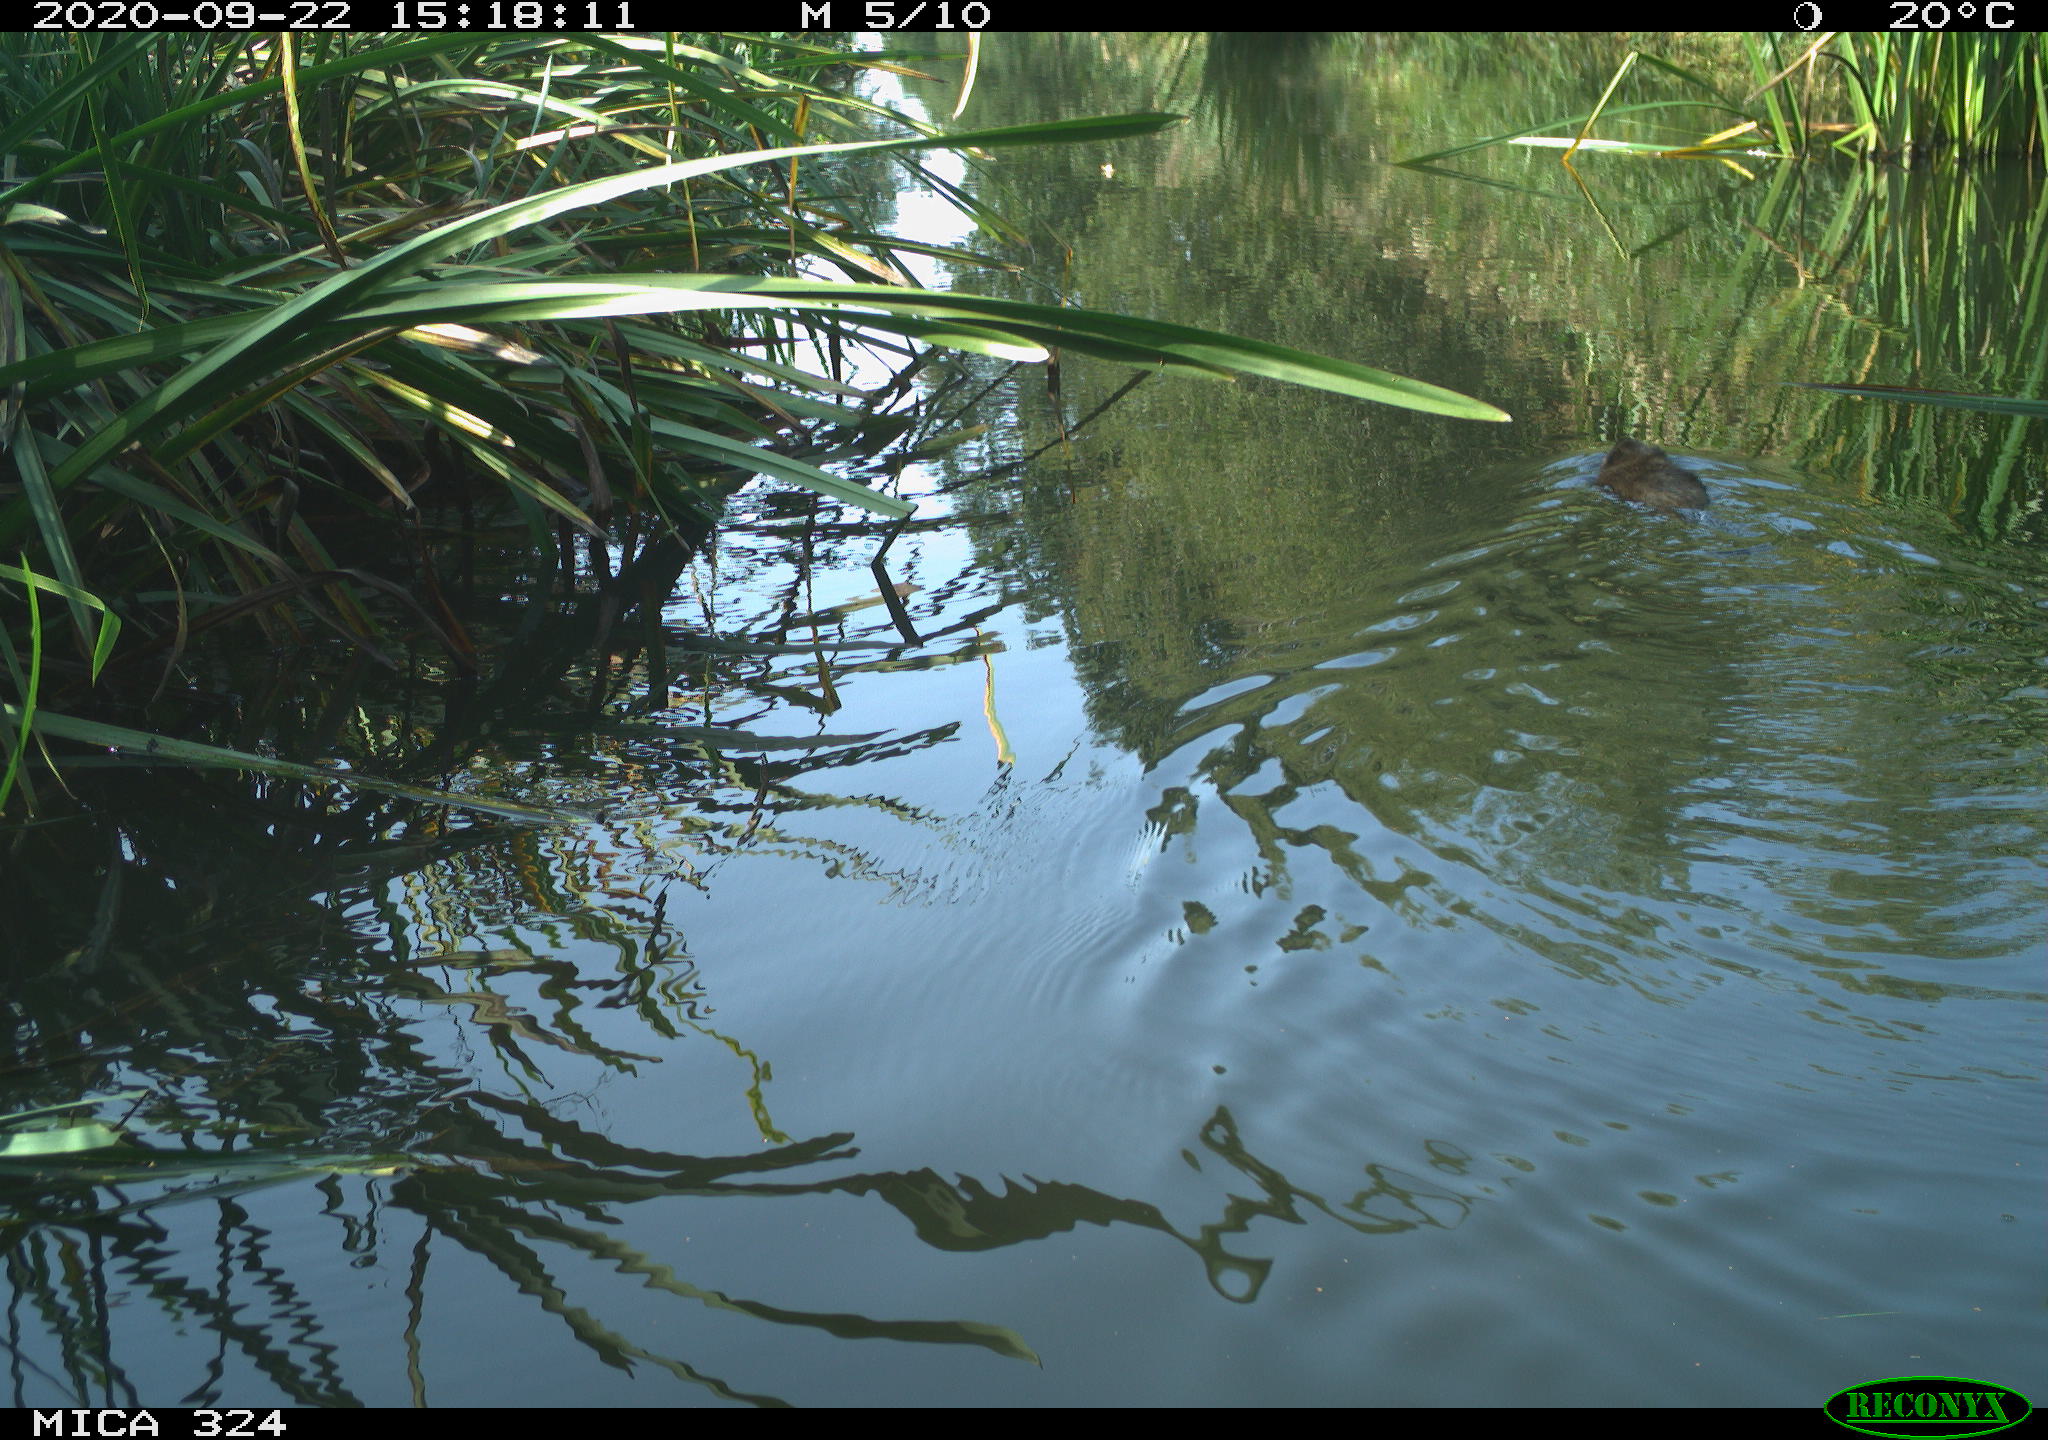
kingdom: Animalia
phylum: Chordata
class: Mammalia
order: Rodentia
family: Cricetidae
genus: Ondatra
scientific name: Ondatra zibethicus
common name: Muskrat
